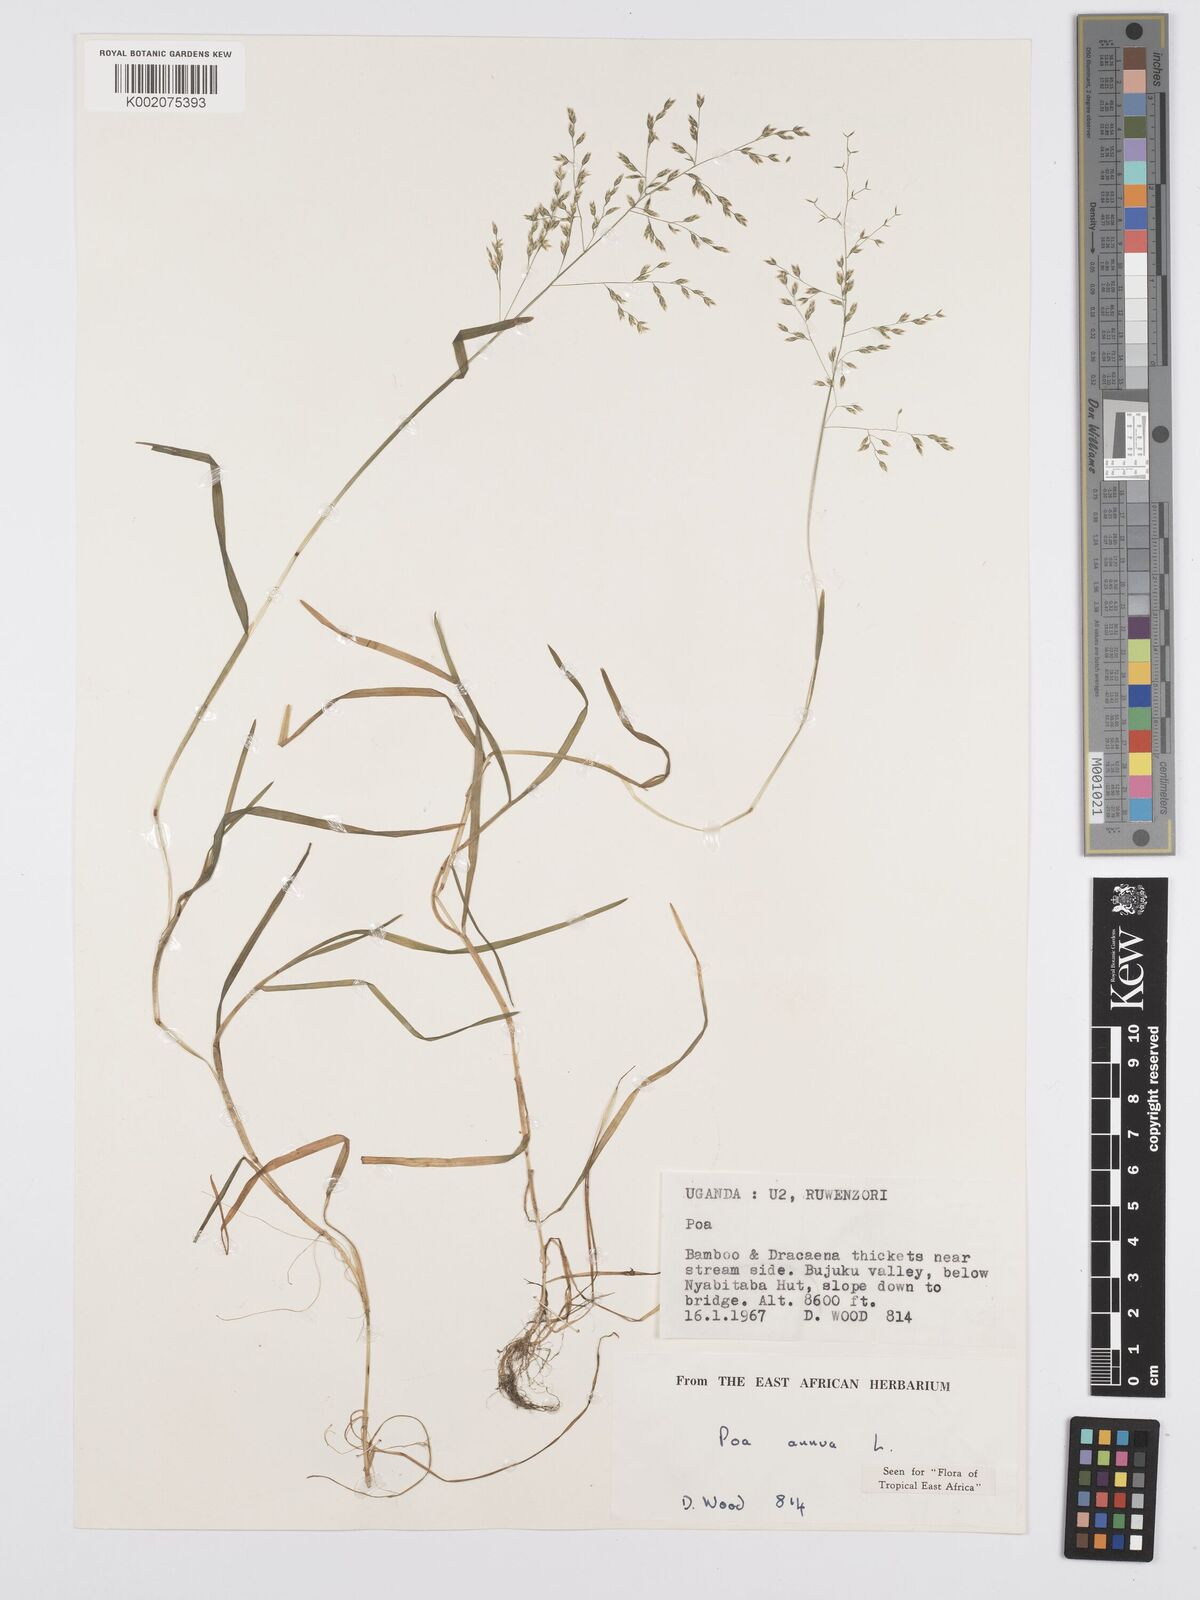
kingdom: Plantae
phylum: Tracheophyta
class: Liliopsida
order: Poales
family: Poaceae
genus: Poa
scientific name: Poa annua
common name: Annual bluegrass
